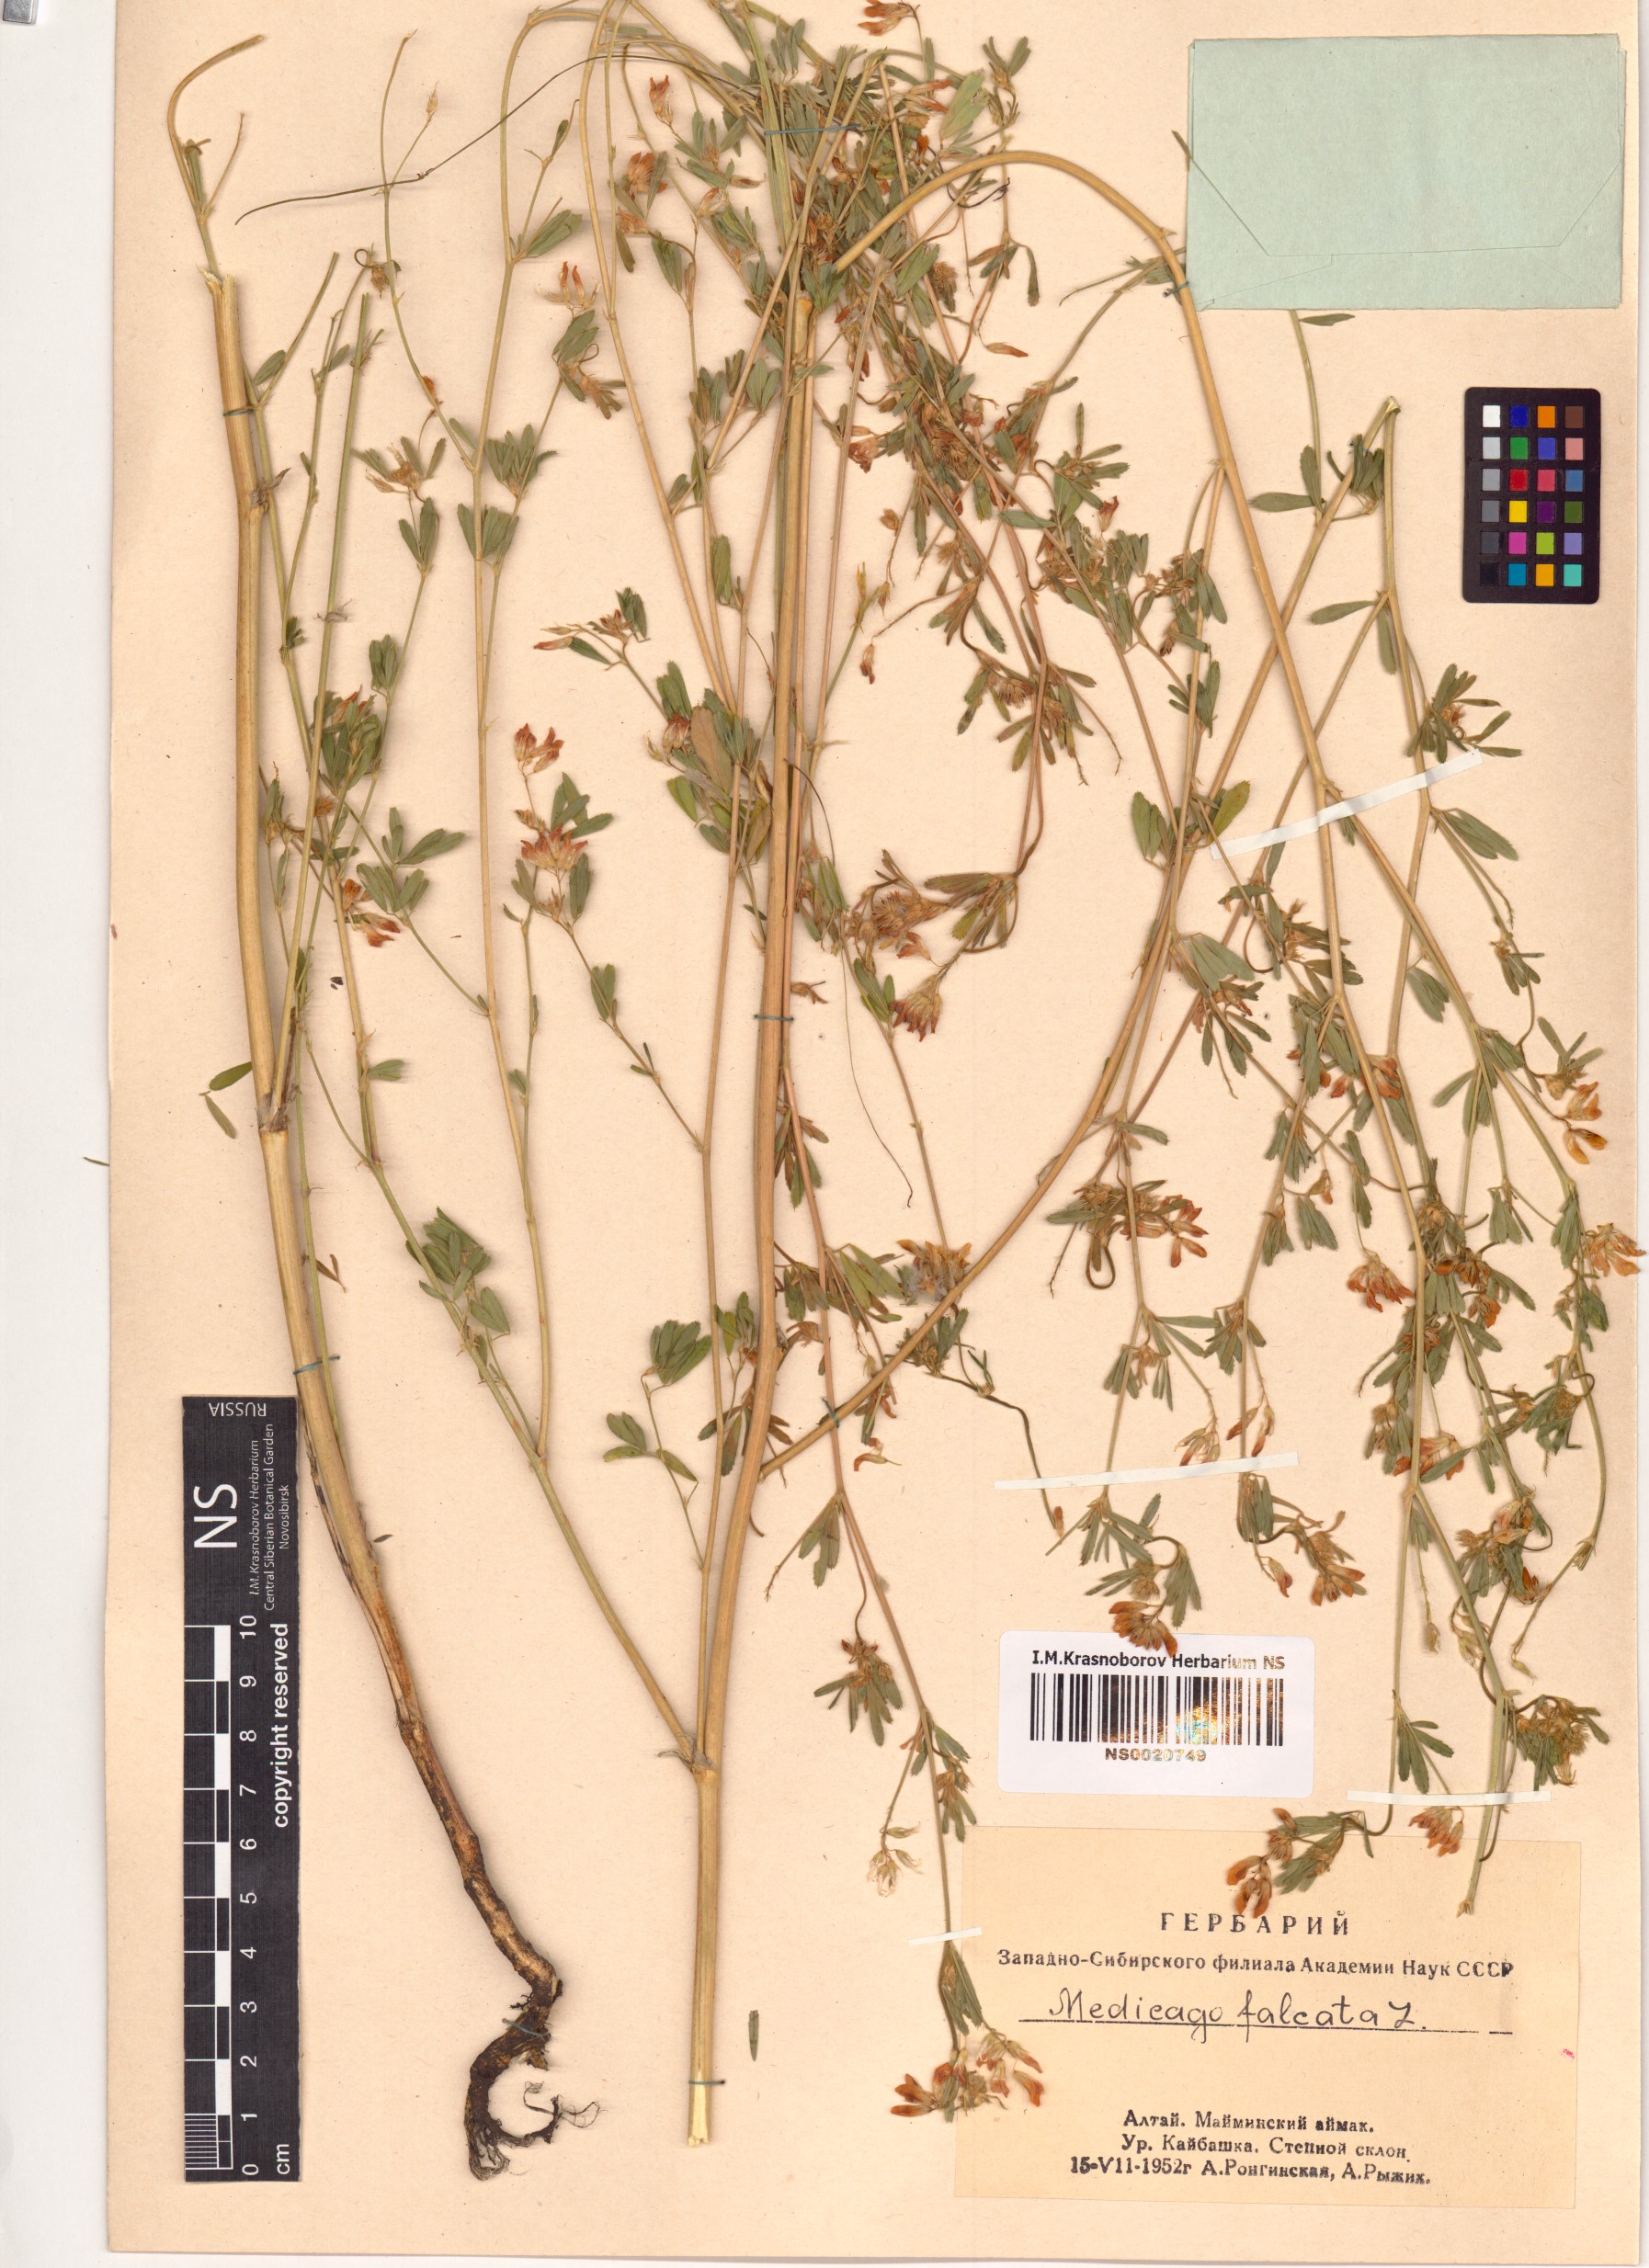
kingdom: Plantae
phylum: Tracheophyta
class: Magnoliopsida
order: Fabales
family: Fabaceae
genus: Medicago
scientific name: Medicago falcata
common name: Sickle medick
